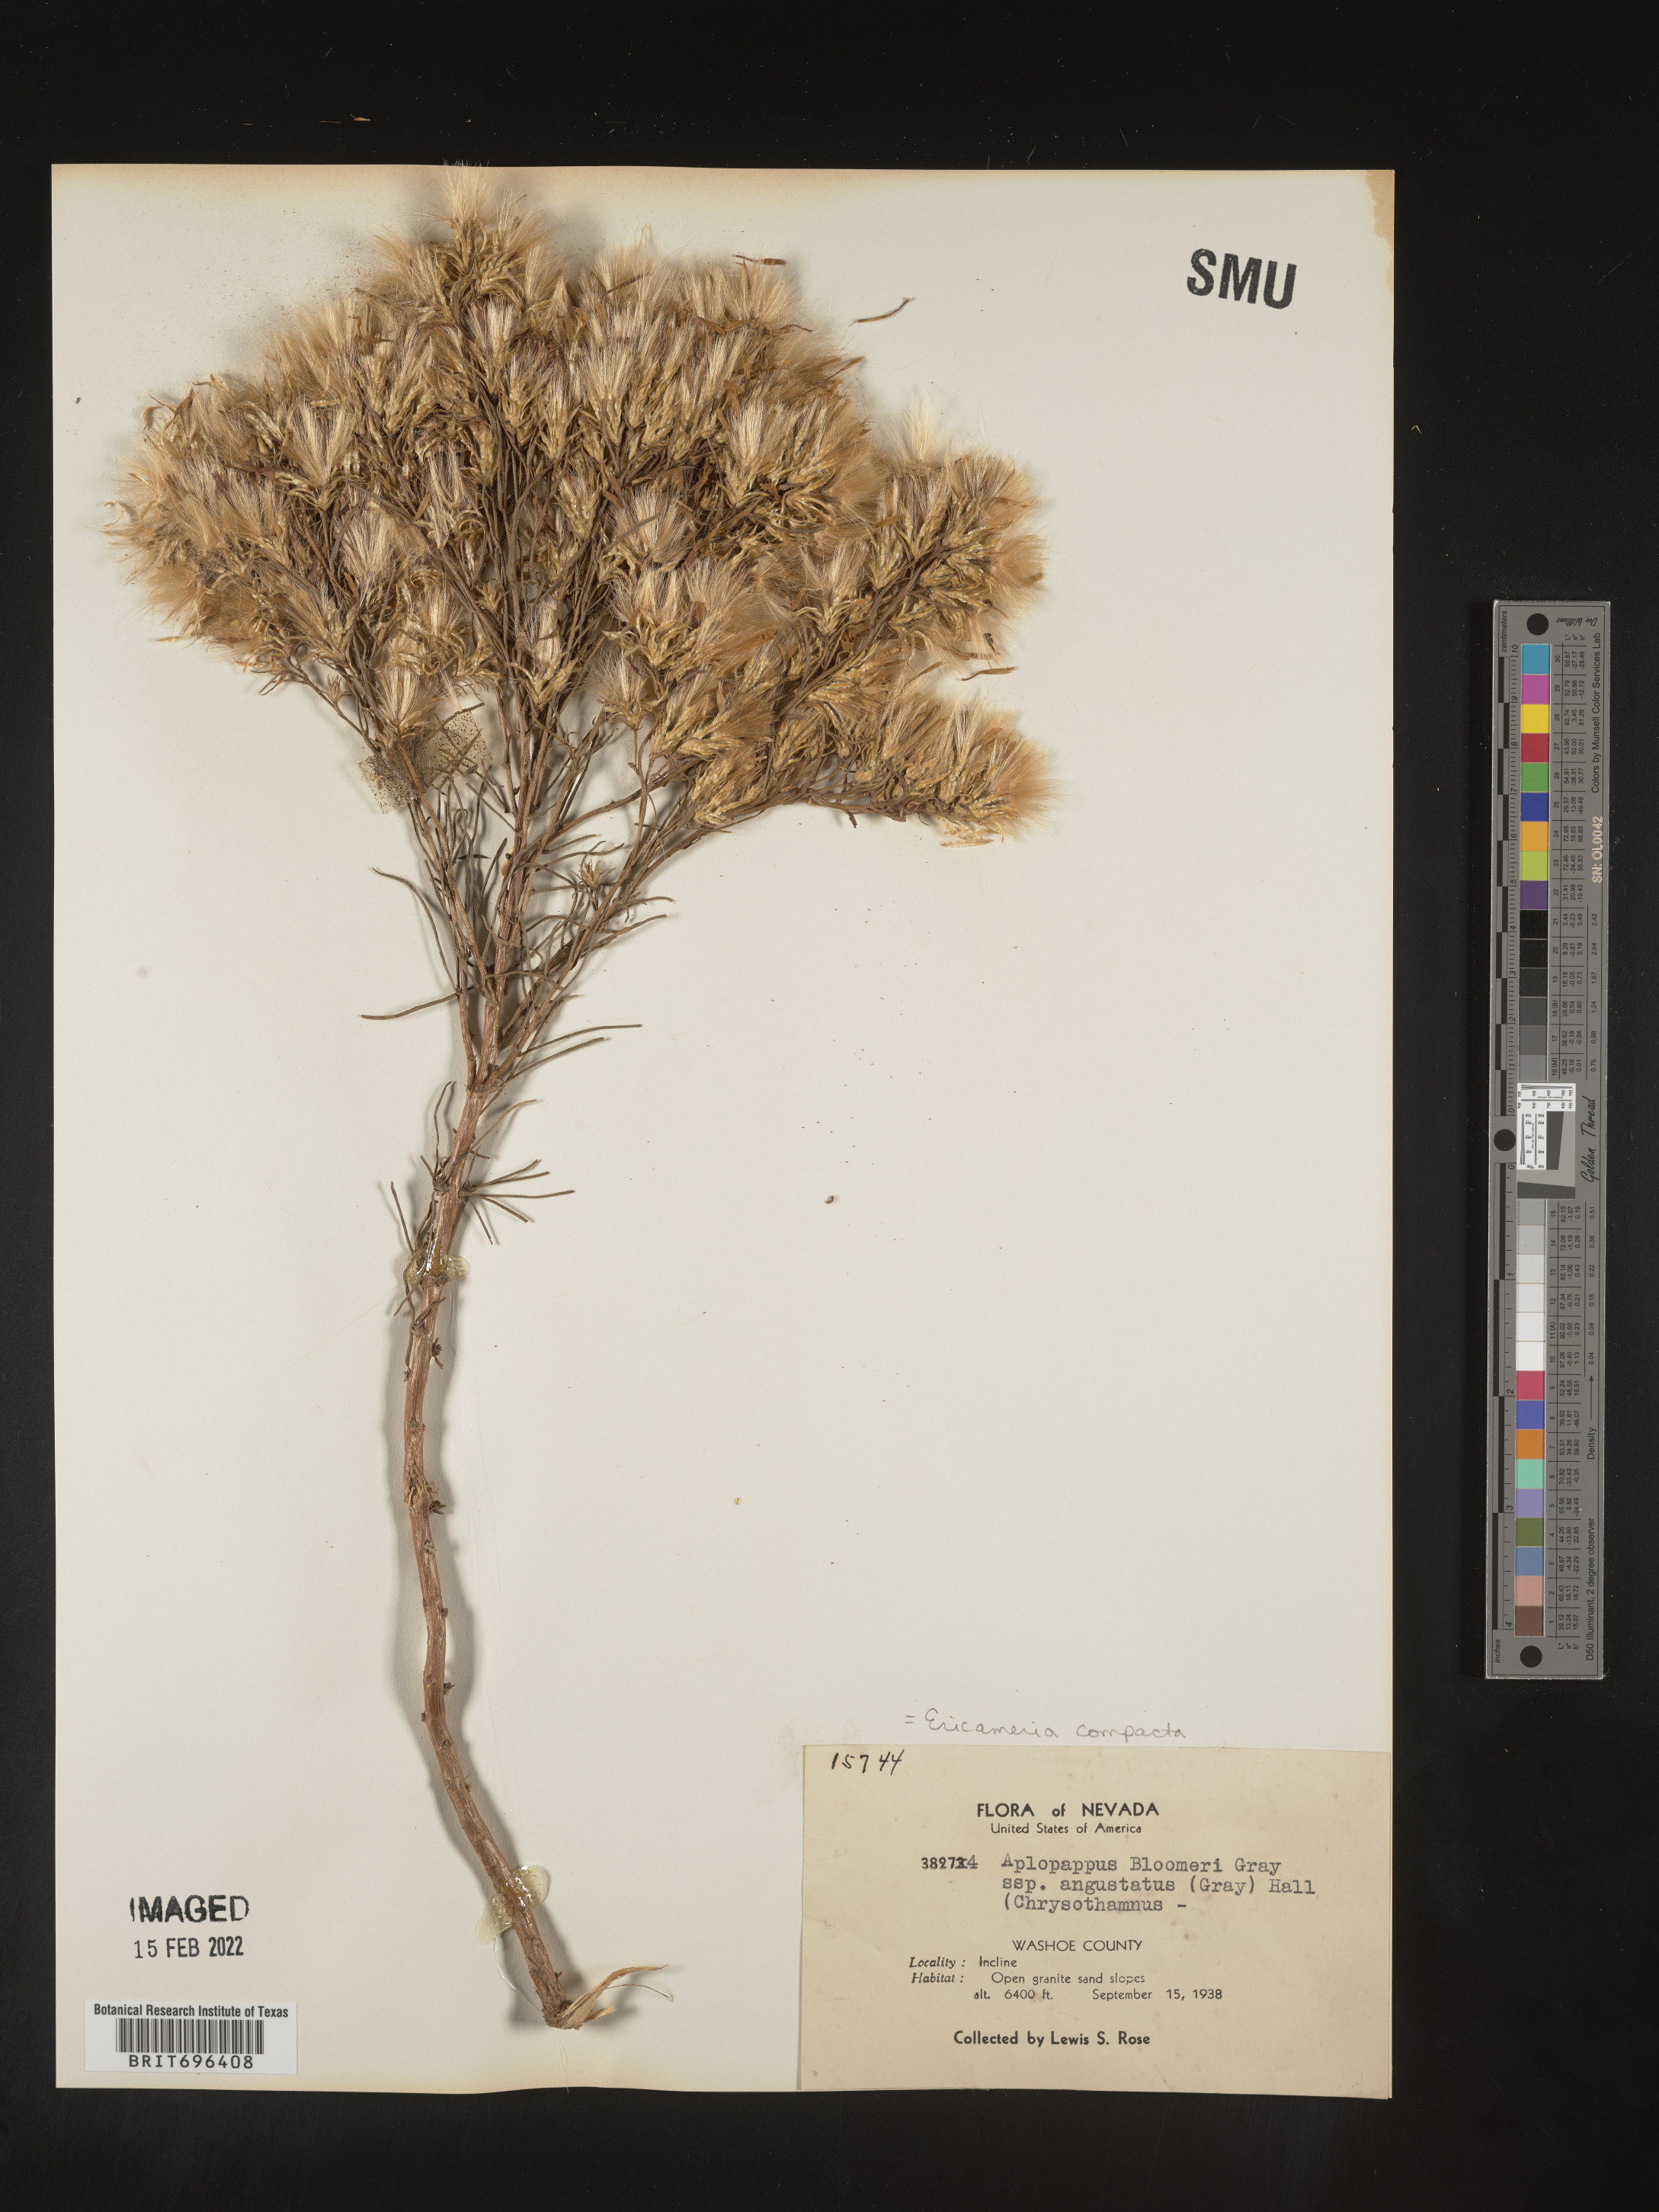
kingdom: Plantae
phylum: Tracheophyta
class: Magnoliopsida
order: Asterales
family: Asteraceae
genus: Ericameria
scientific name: Ericameria bloomeri
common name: Bloomer's goldenbush
